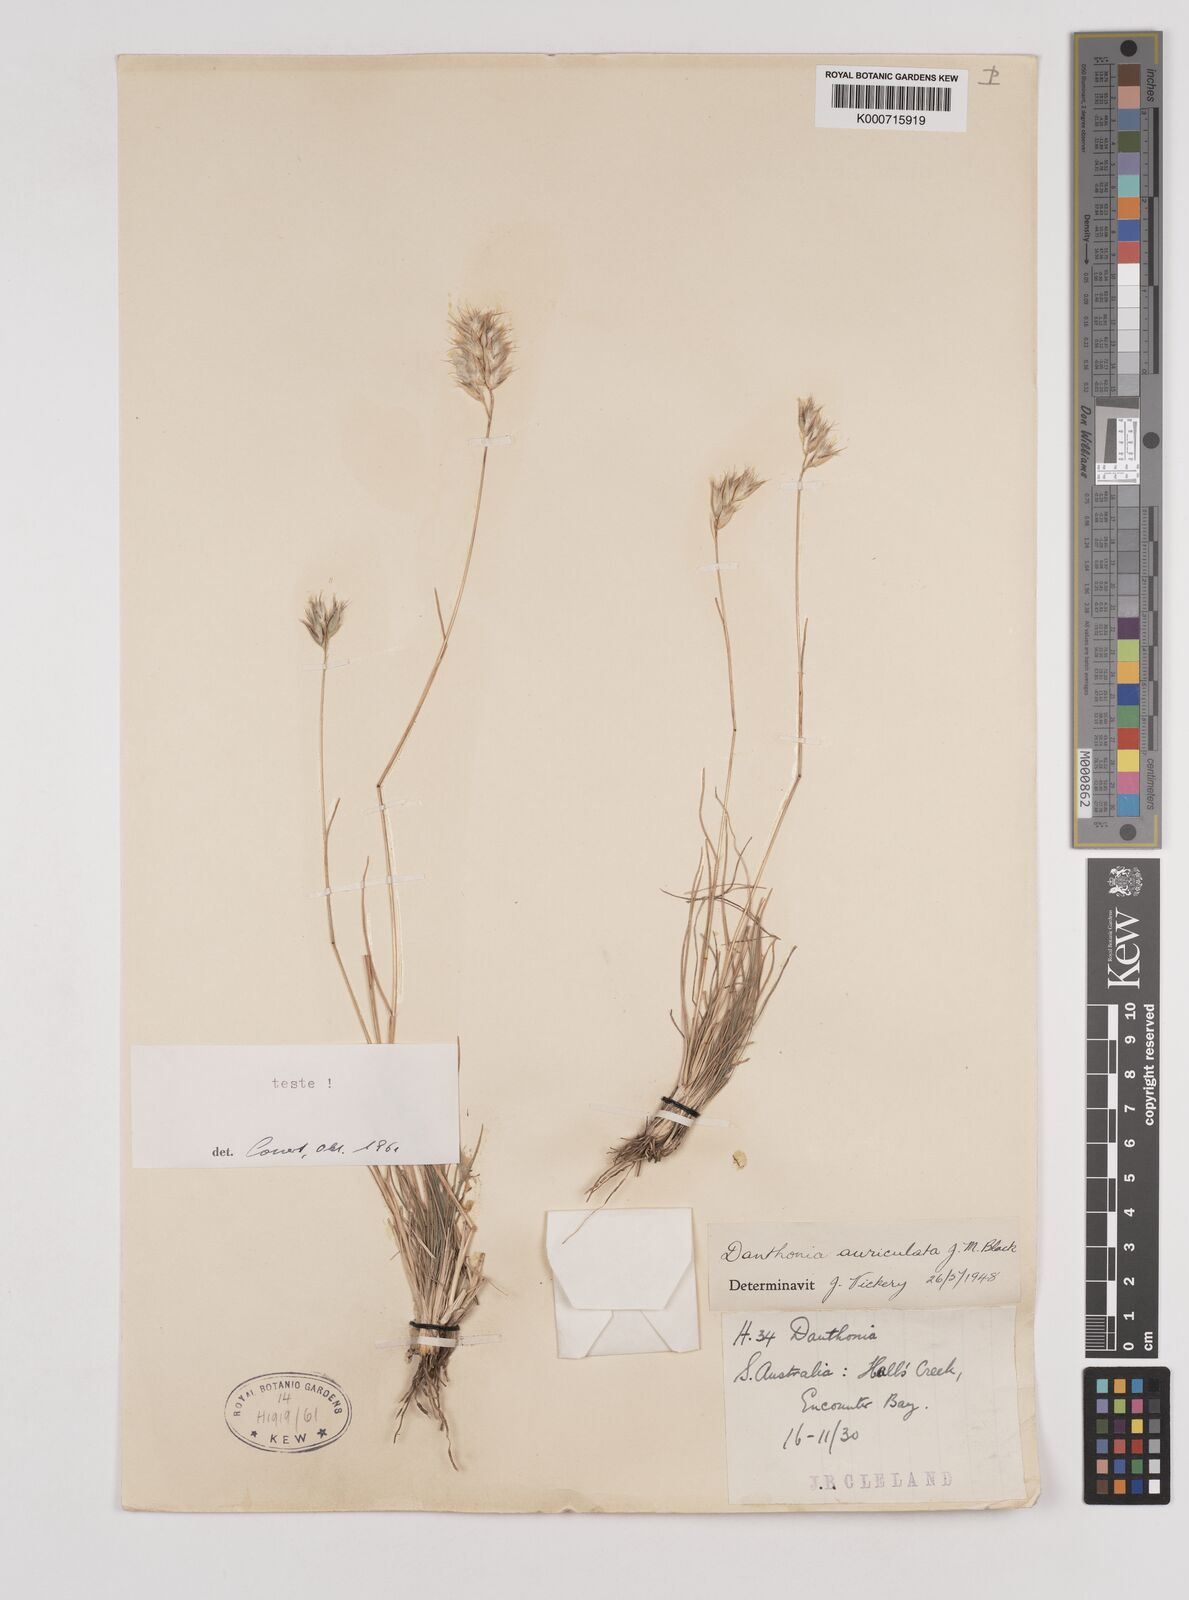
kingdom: Plantae
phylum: Tracheophyta
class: Liliopsida
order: Poales
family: Poaceae
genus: Rytidosperma
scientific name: Rytidosperma auriculatum
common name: Lobed wallaby grass
